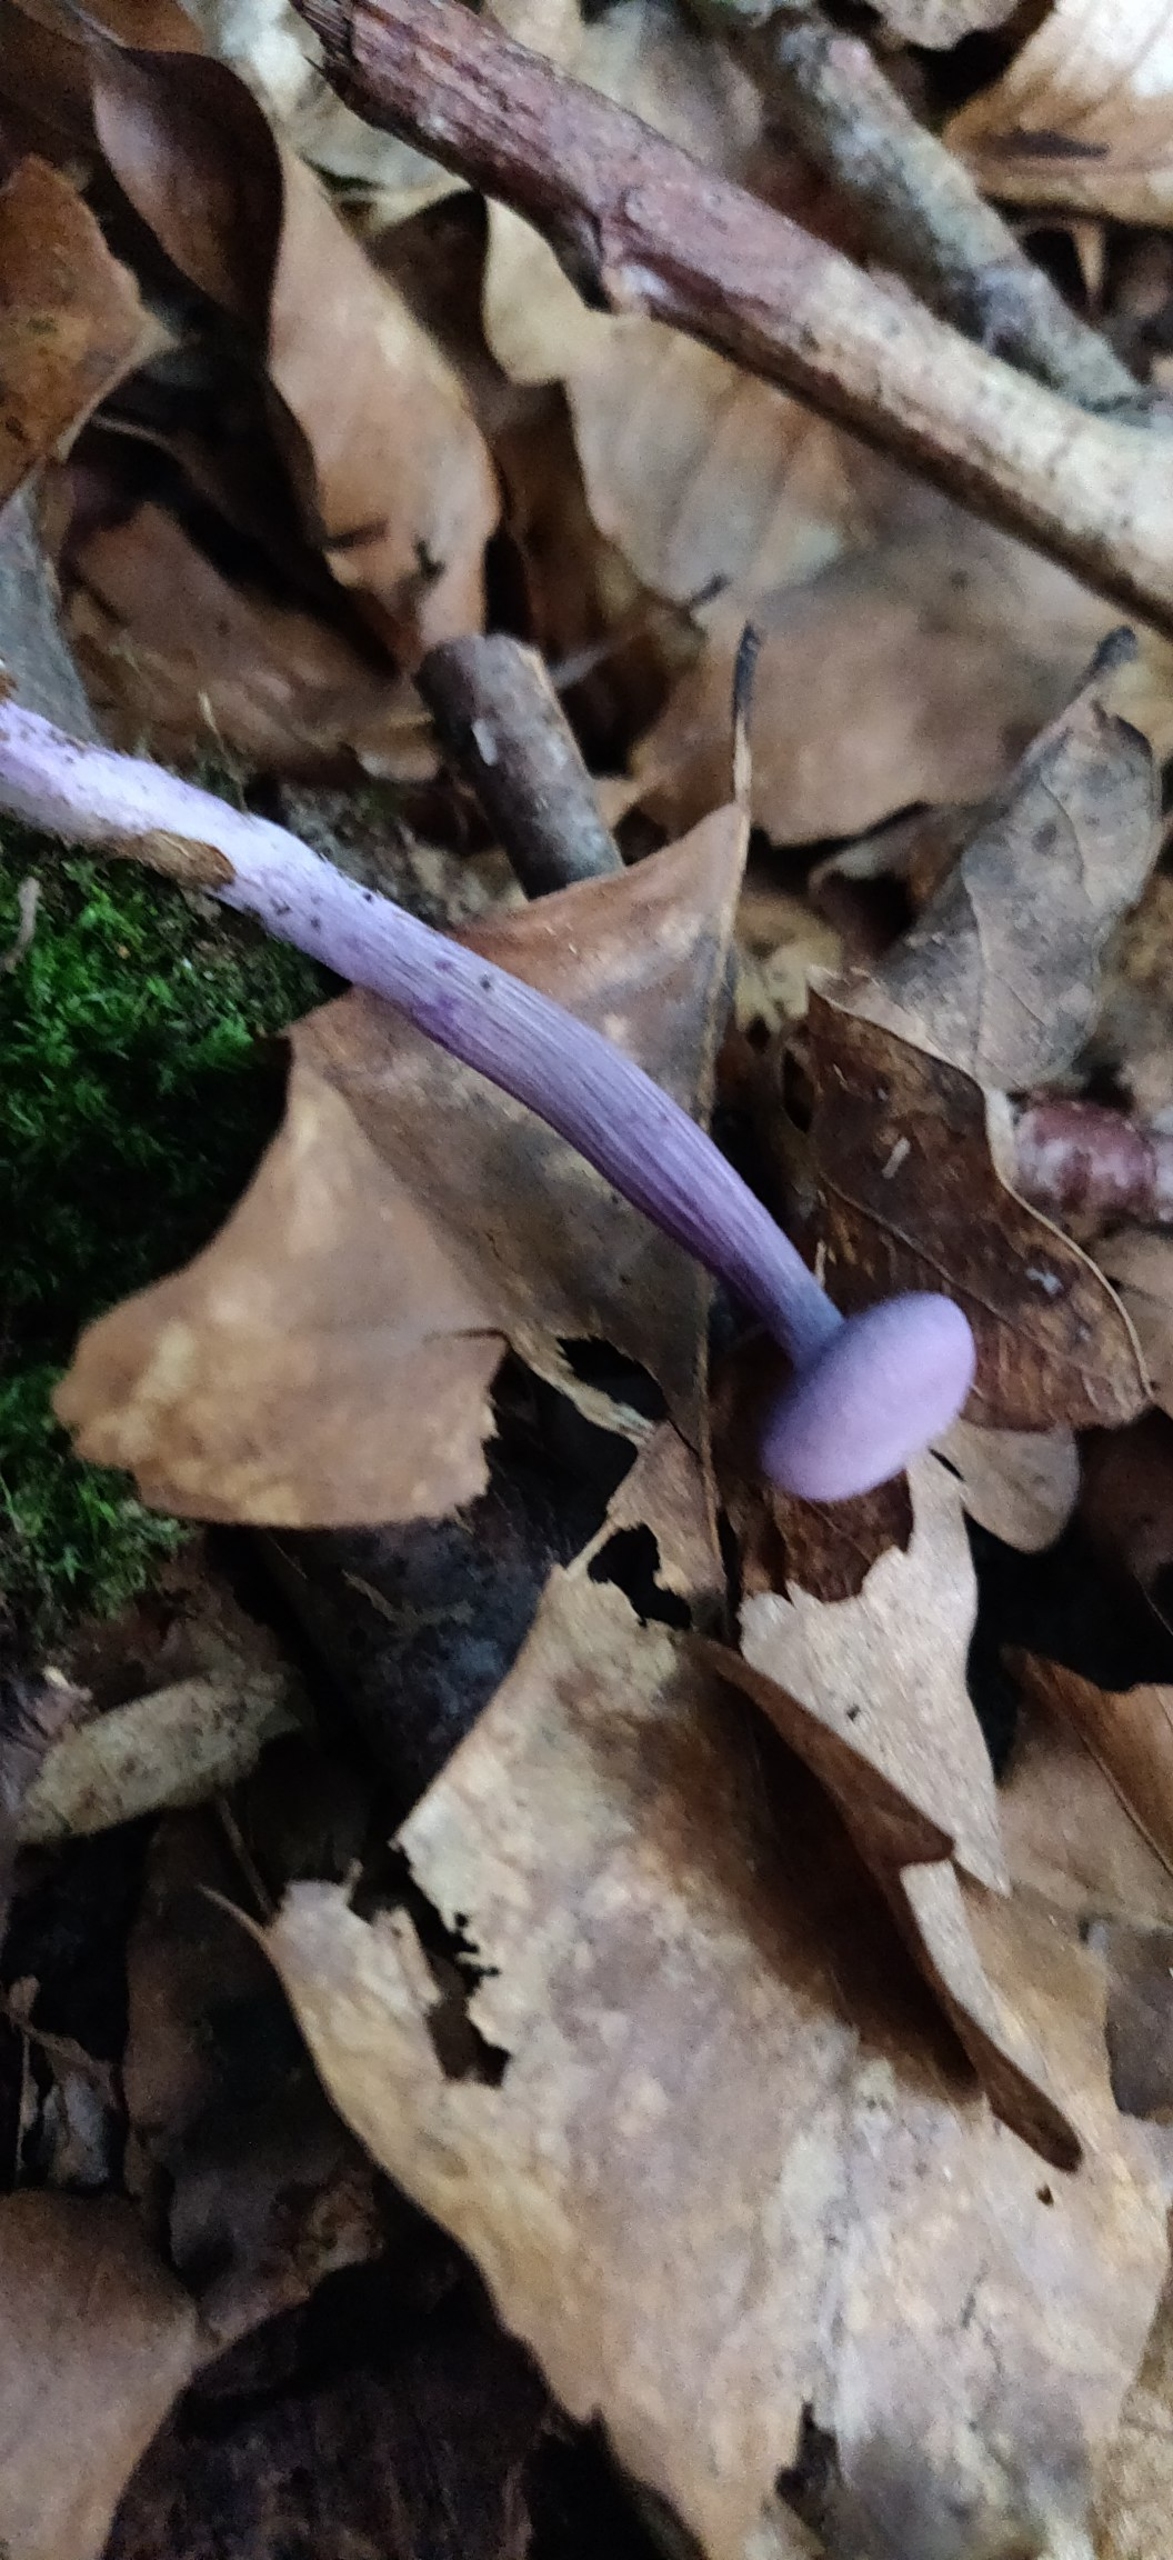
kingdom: Fungi
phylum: Basidiomycota
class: Agaricomycetes
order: Agaricales
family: Hydnangiaceae
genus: Laccaria
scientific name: Laccaria amethystina
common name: Violet ametysthat
